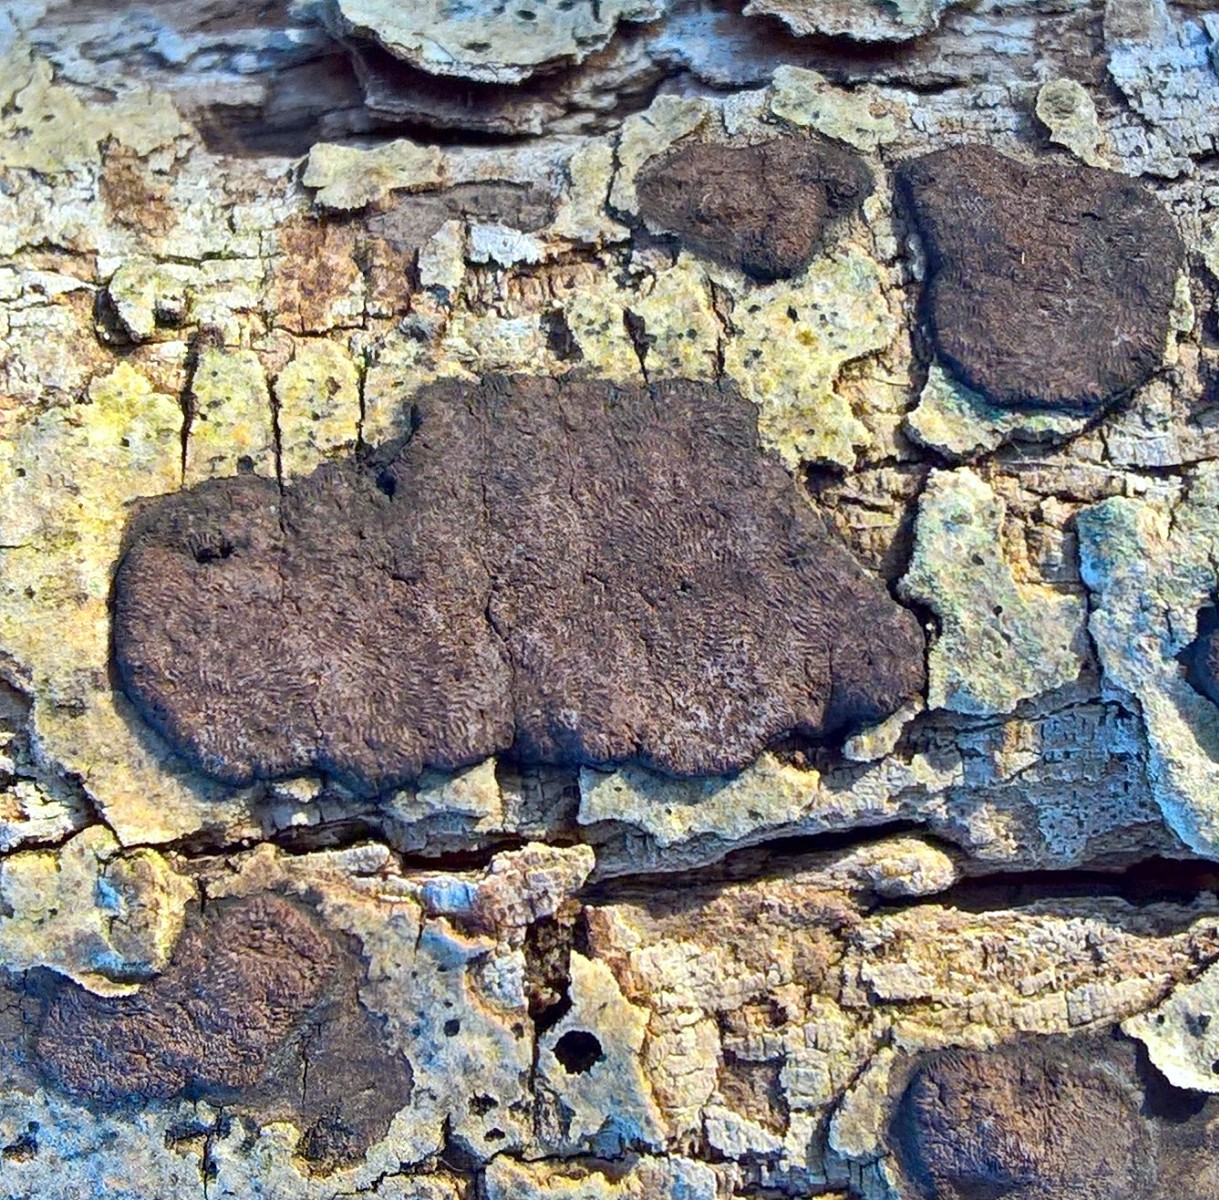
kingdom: Fungi
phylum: Ascomycota
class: Sordariomycetes
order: Xylariales
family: Hypoxylaceae
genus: Hypoxylon
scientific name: Hypoxylon petriniae
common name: nedsænket kulbær
